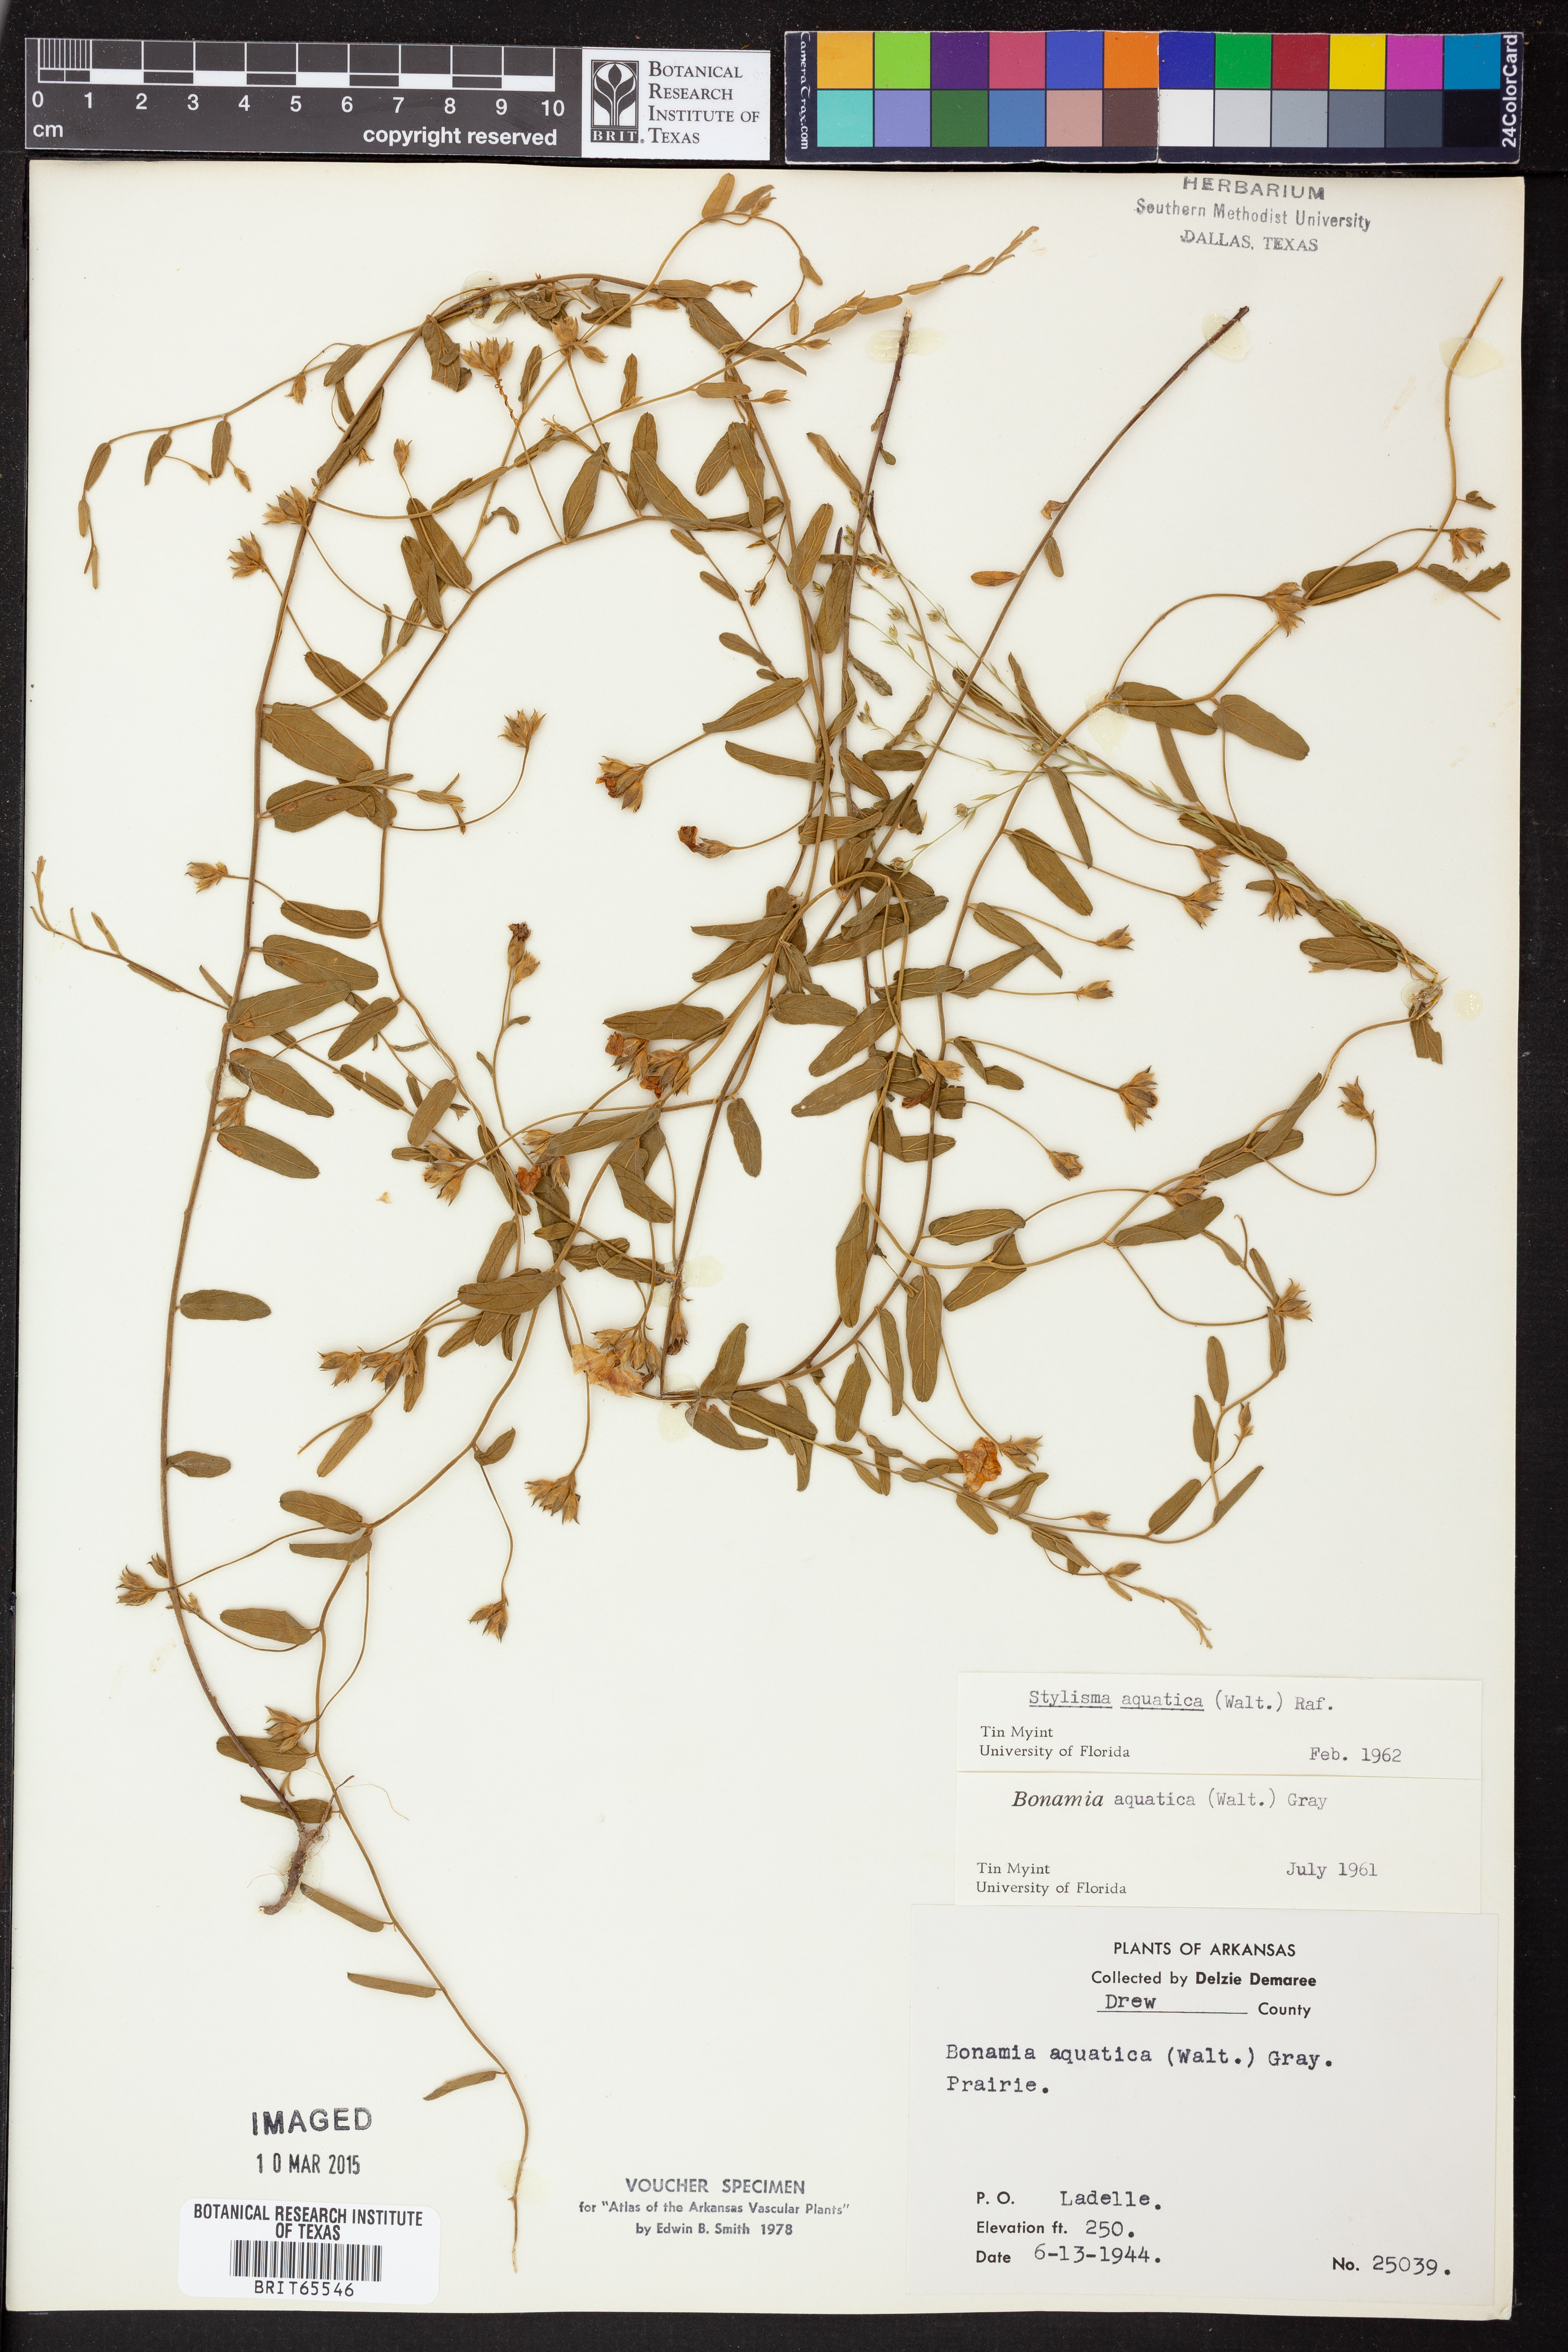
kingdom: Plantae
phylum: Tracheophyta
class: Magnoliopsida
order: Solanales
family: Convolvulaceae
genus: Stylisma
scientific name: Stylisma
